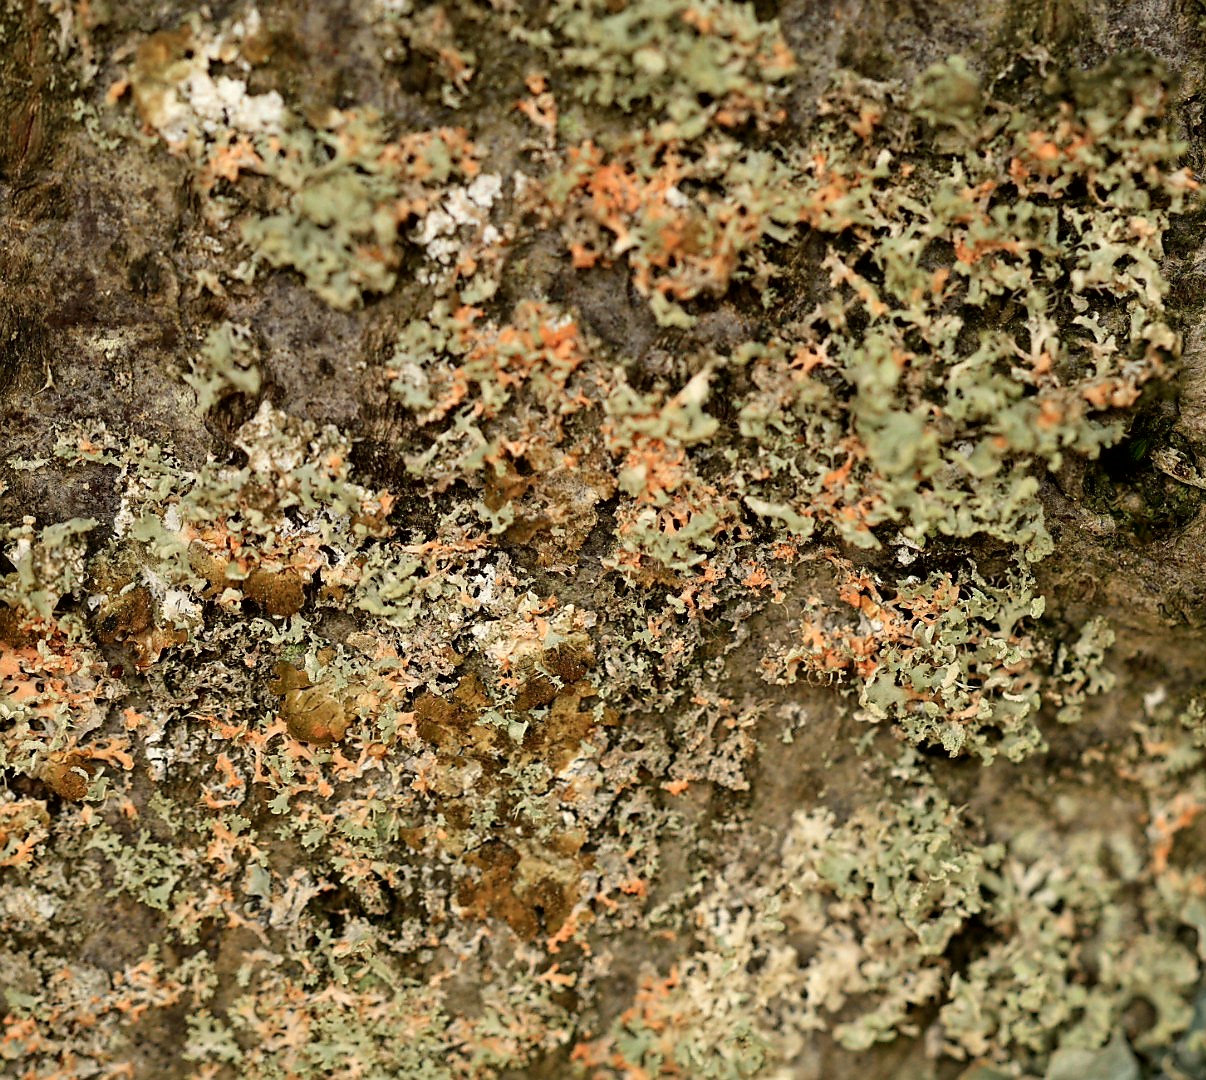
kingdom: Fungi
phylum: Basidiomycota
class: Agaricomycetes
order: Corticiales
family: Corticiaceae
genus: Erythricium
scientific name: Erythricium aurantiacum
